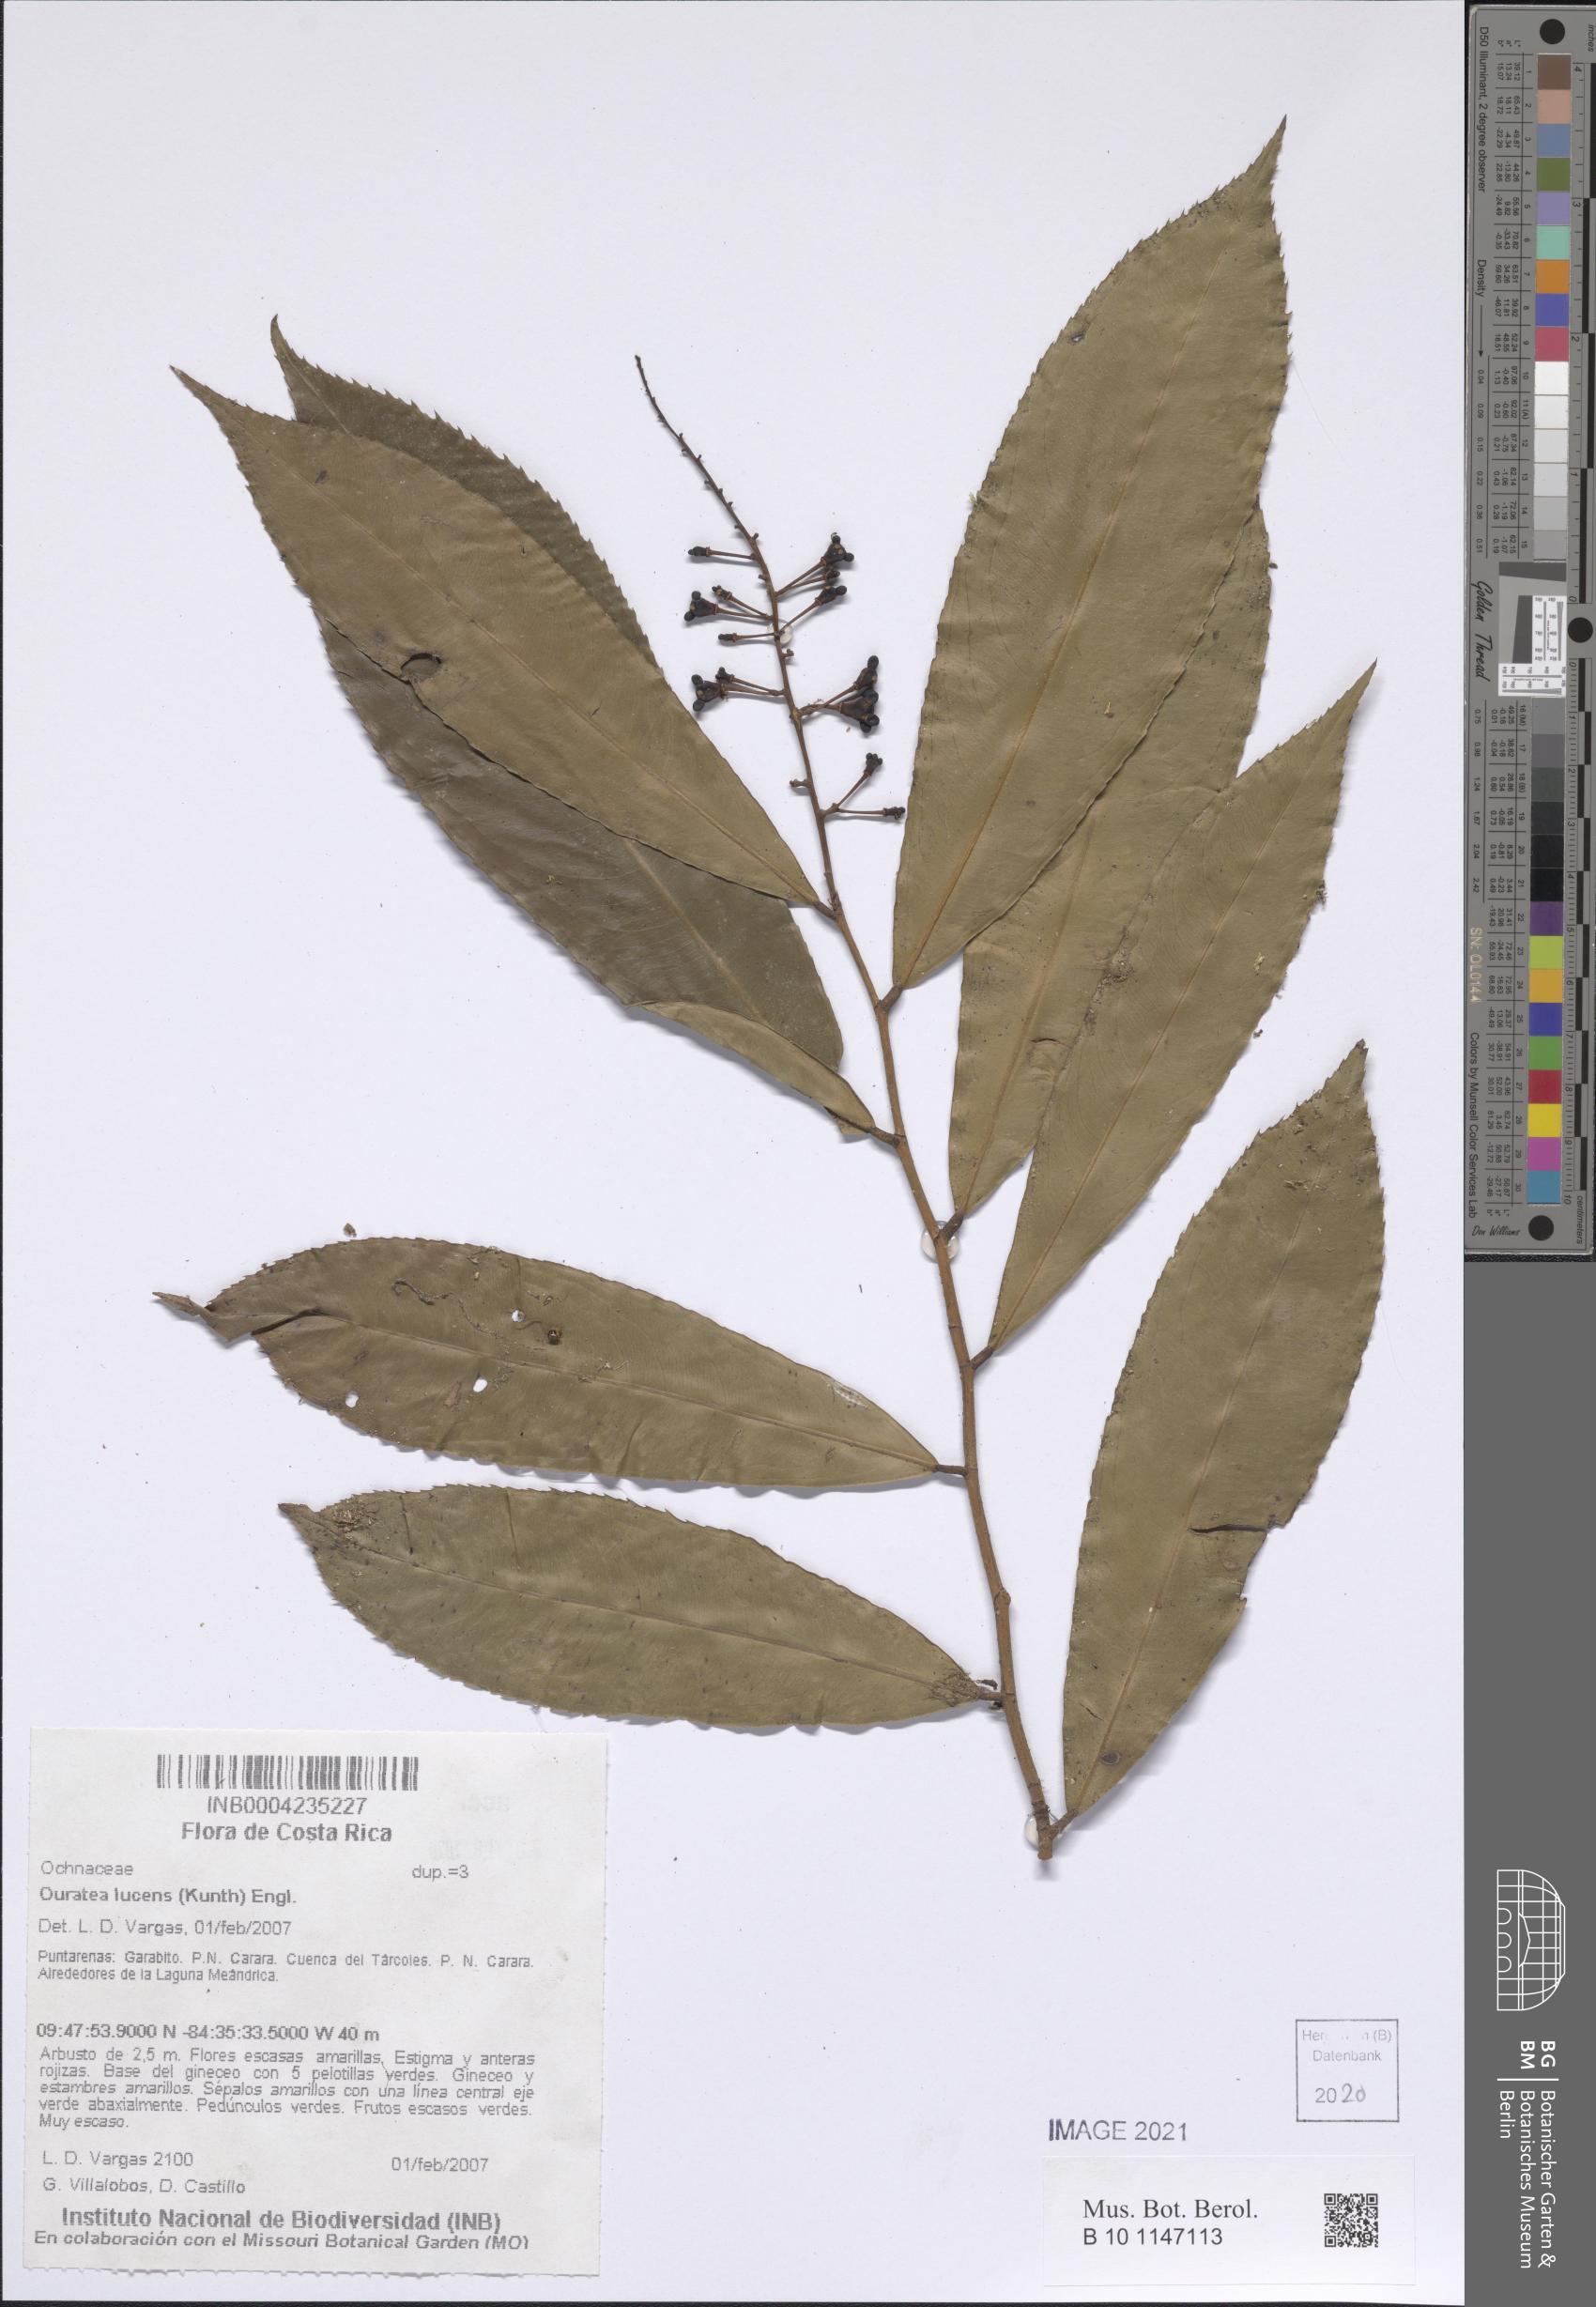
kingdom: Plantae
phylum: Tracheophyta
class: Magnoliopsida
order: Malpighiales
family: Ochnaceae
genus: Ouratea
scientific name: Ouratea lucens
